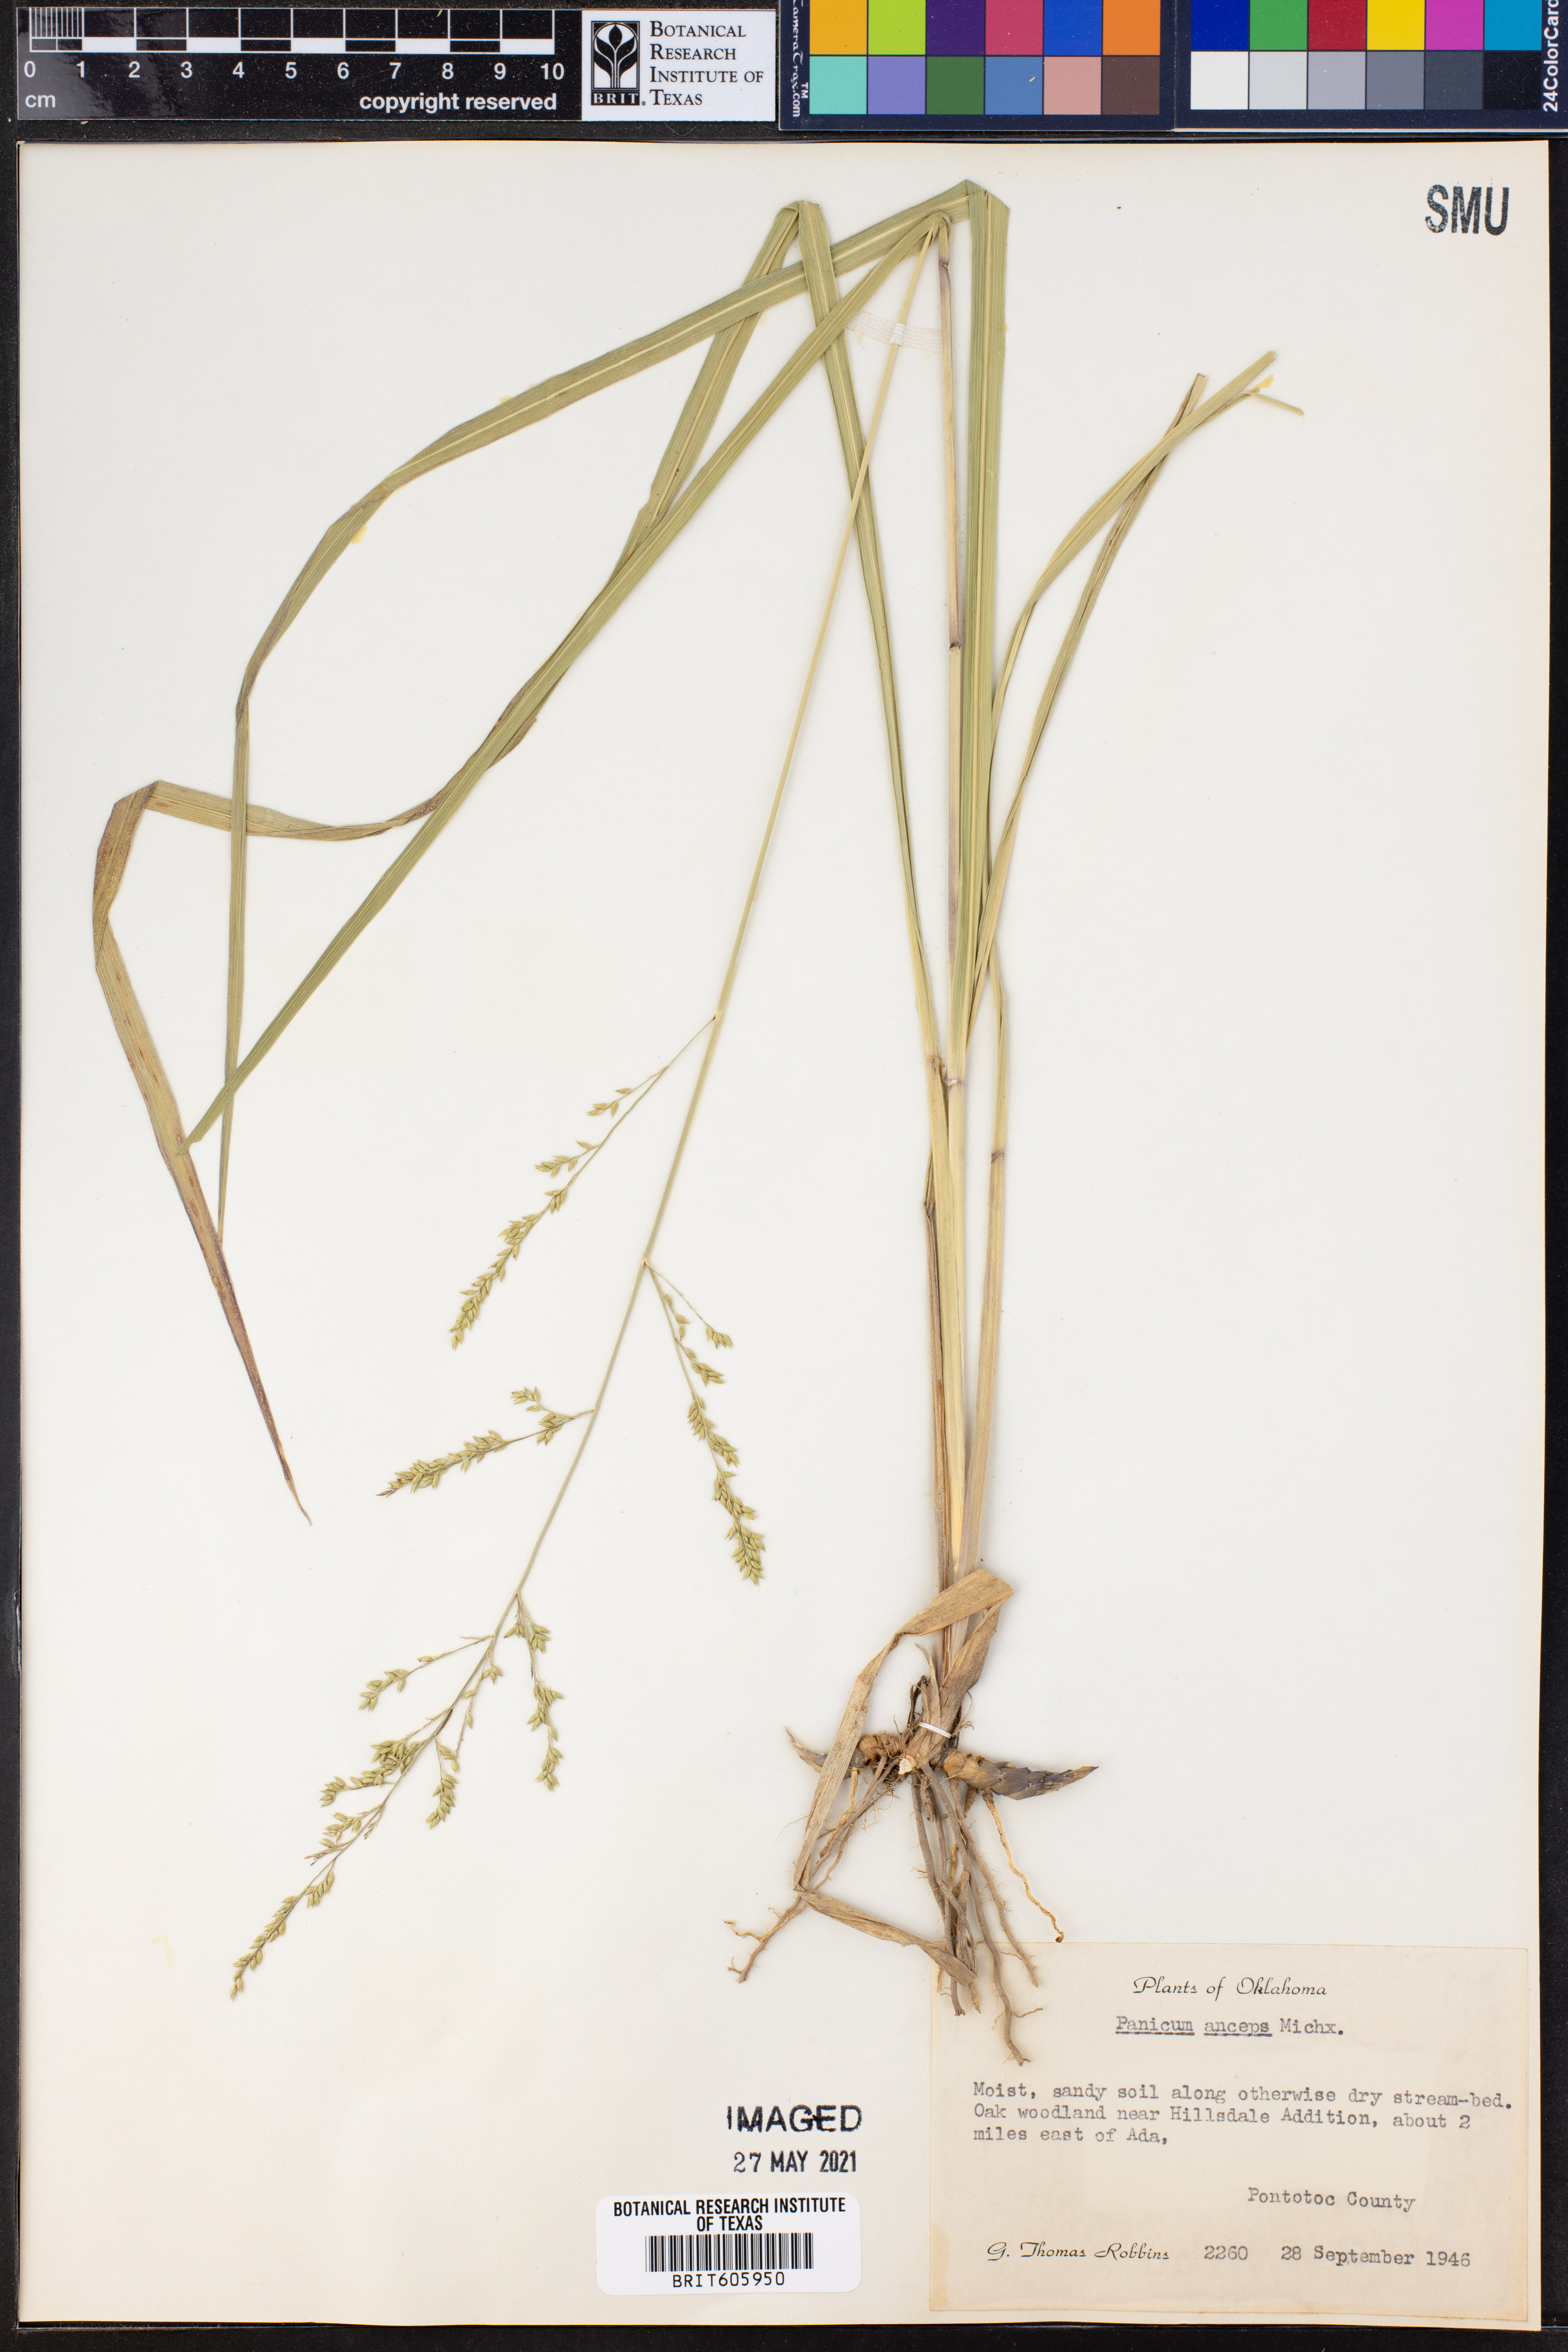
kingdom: Plantae
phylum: Tracheophyta
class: Liliopsida
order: Poales
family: Poaceae
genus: Coleataenia
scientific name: Coleataenia anceps
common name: Beaked panic grass
